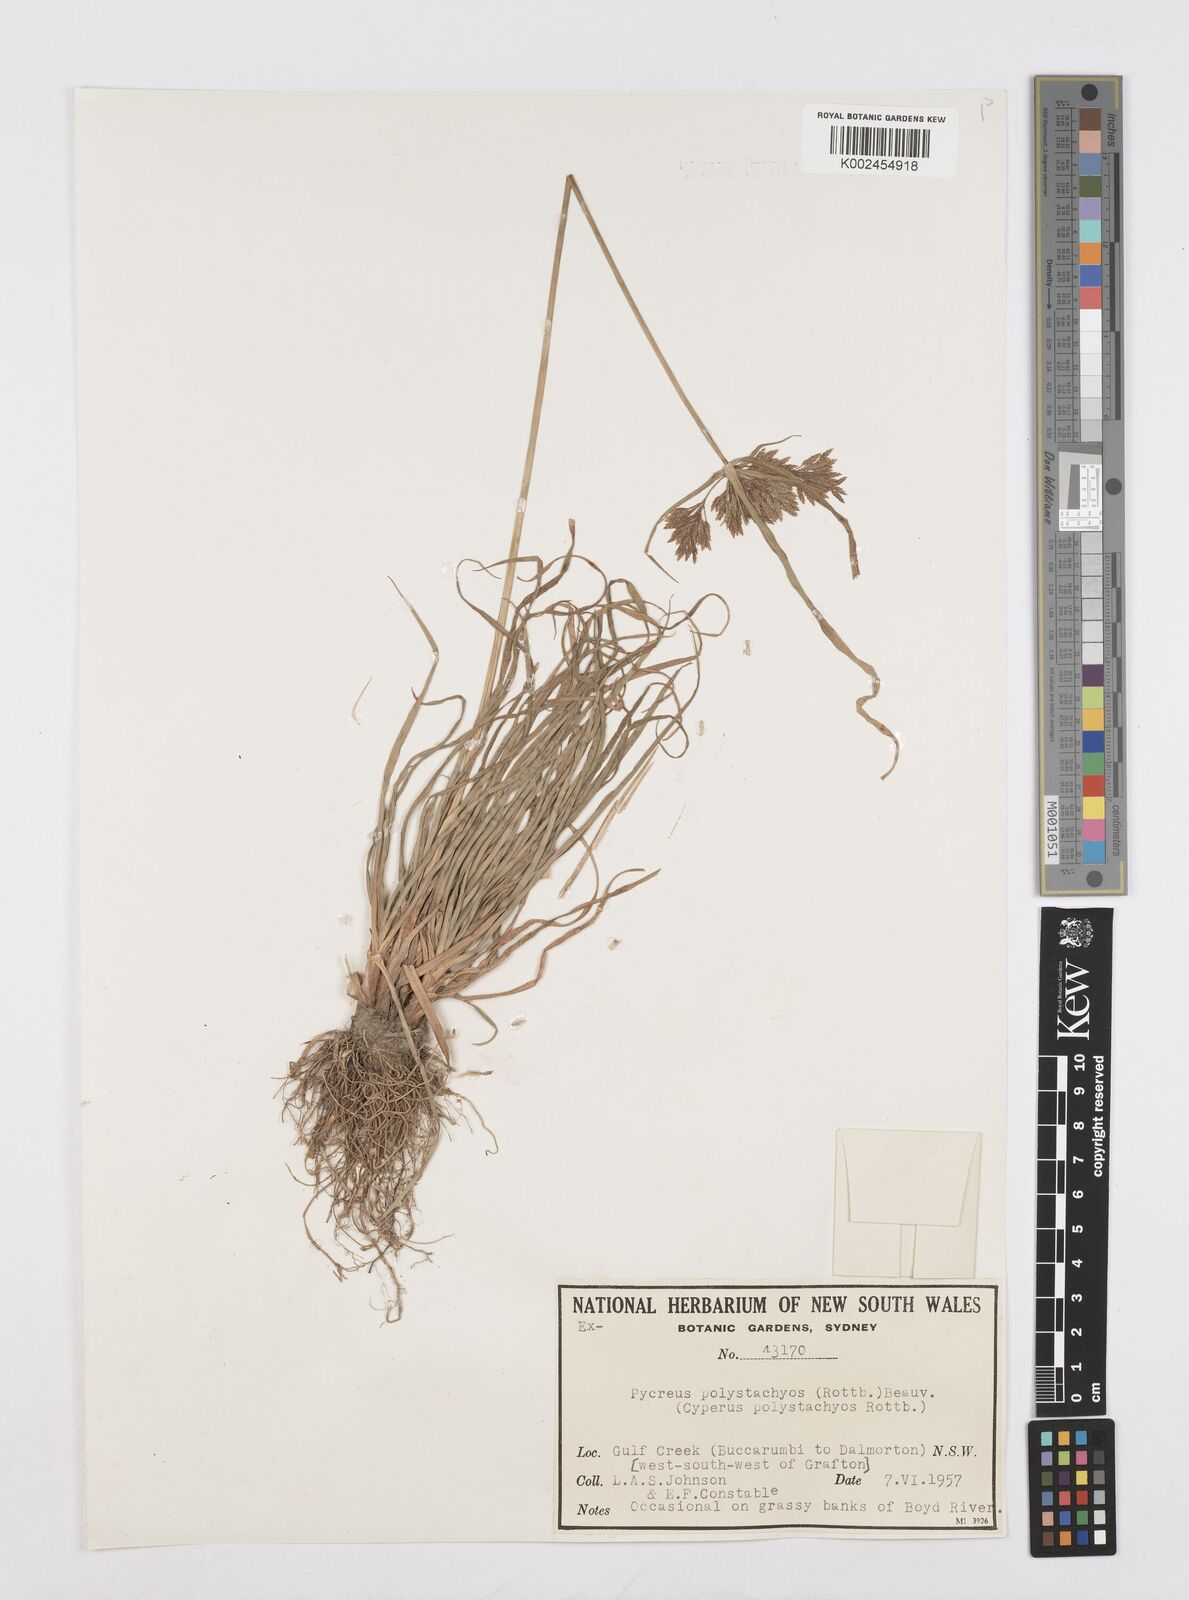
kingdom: Plantae
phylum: Tracheophyta
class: Liliopsida
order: Poales
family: Cyperaceae
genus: Cyperus
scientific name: Cyperus polystachyos
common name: Bunchy flat sedge
